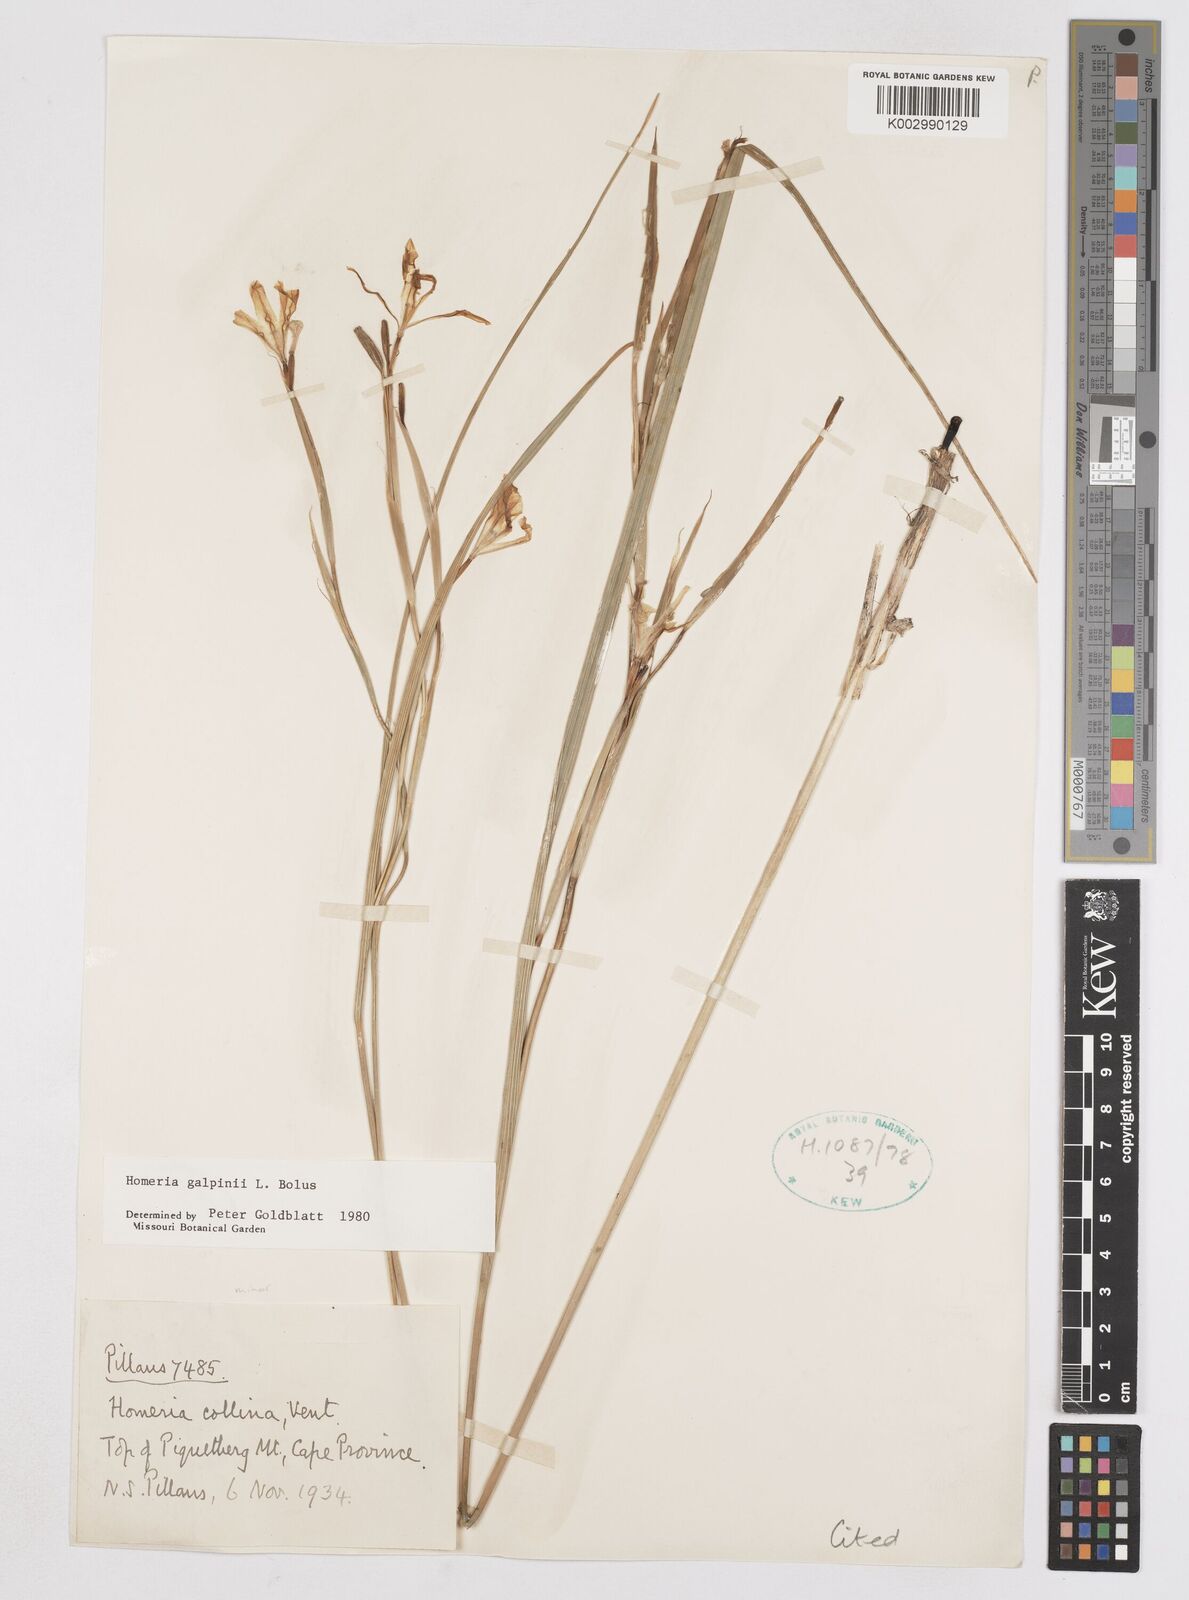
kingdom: Plantae
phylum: Tracheophyta
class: Liliopsida
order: Asparagales
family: Iridaceae
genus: Moraea
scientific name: Moraea
